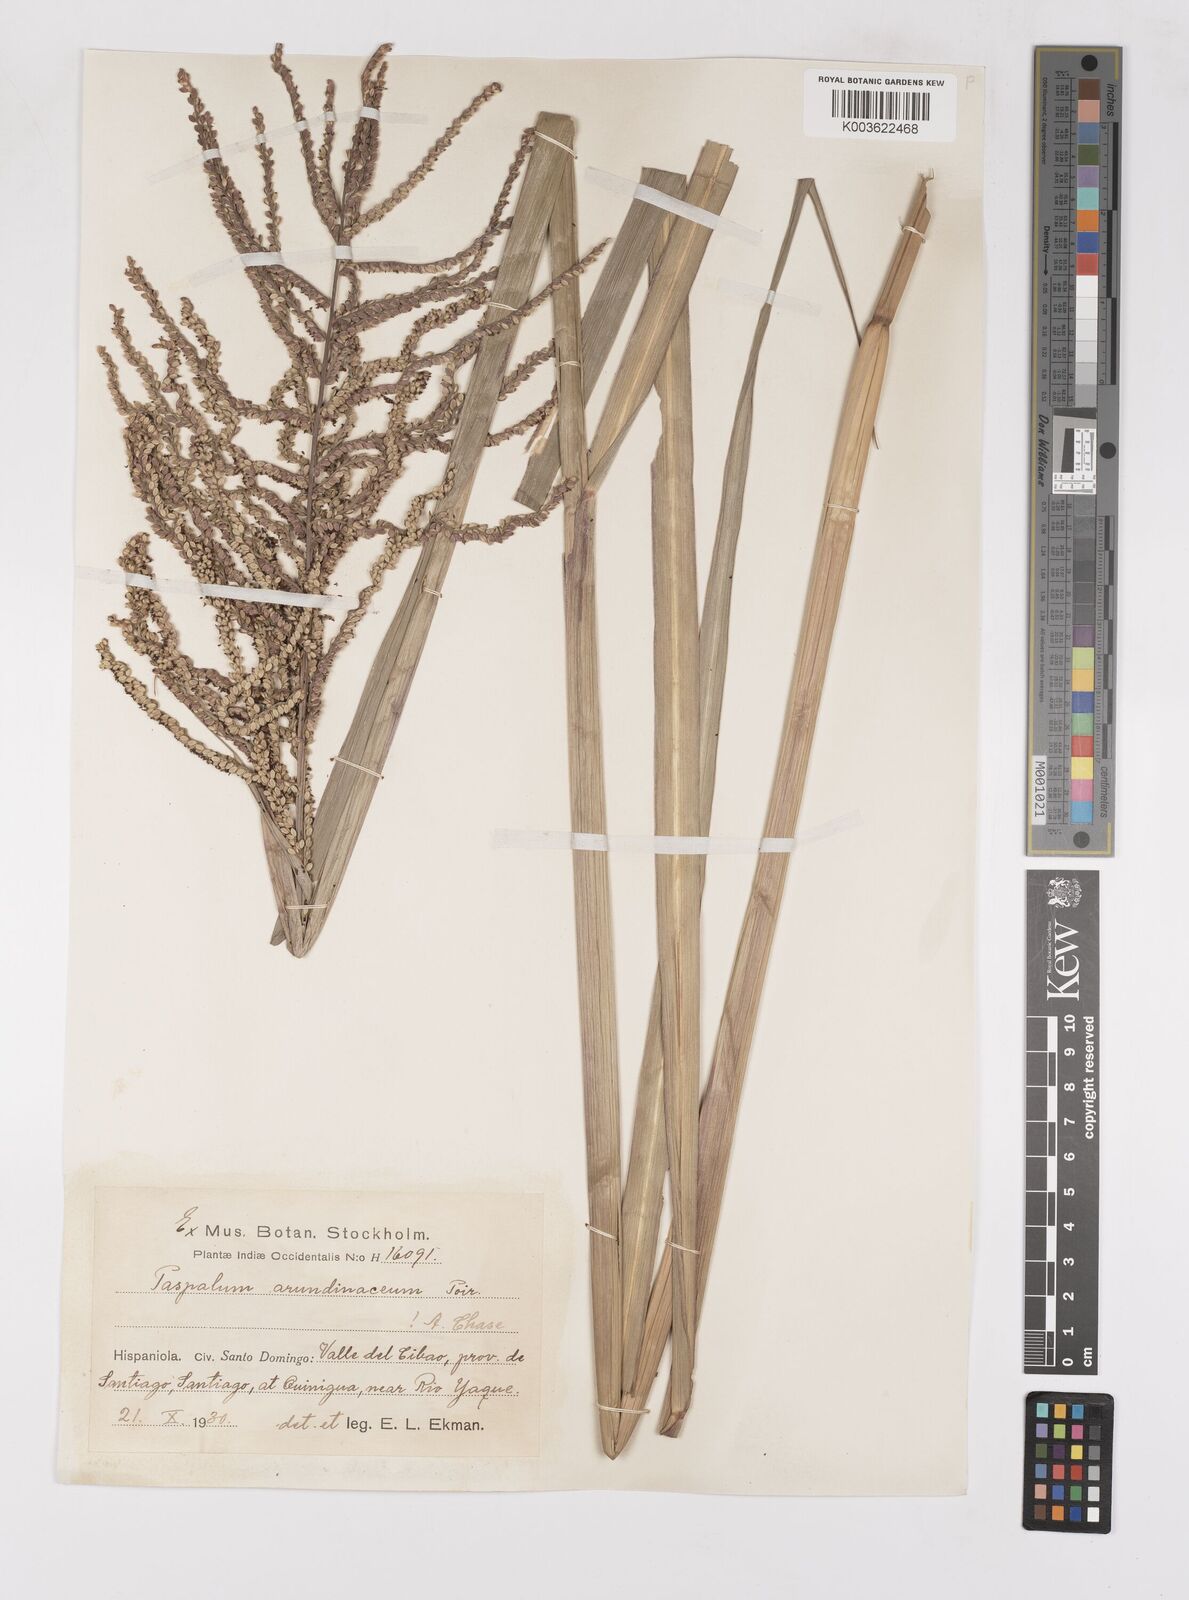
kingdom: Plantae
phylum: Tracheophyta
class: Liliopsida
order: Poales
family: Poaceae
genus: Paspalum
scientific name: Paspalum arundinaceum
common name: Thick ditch crowngrass
